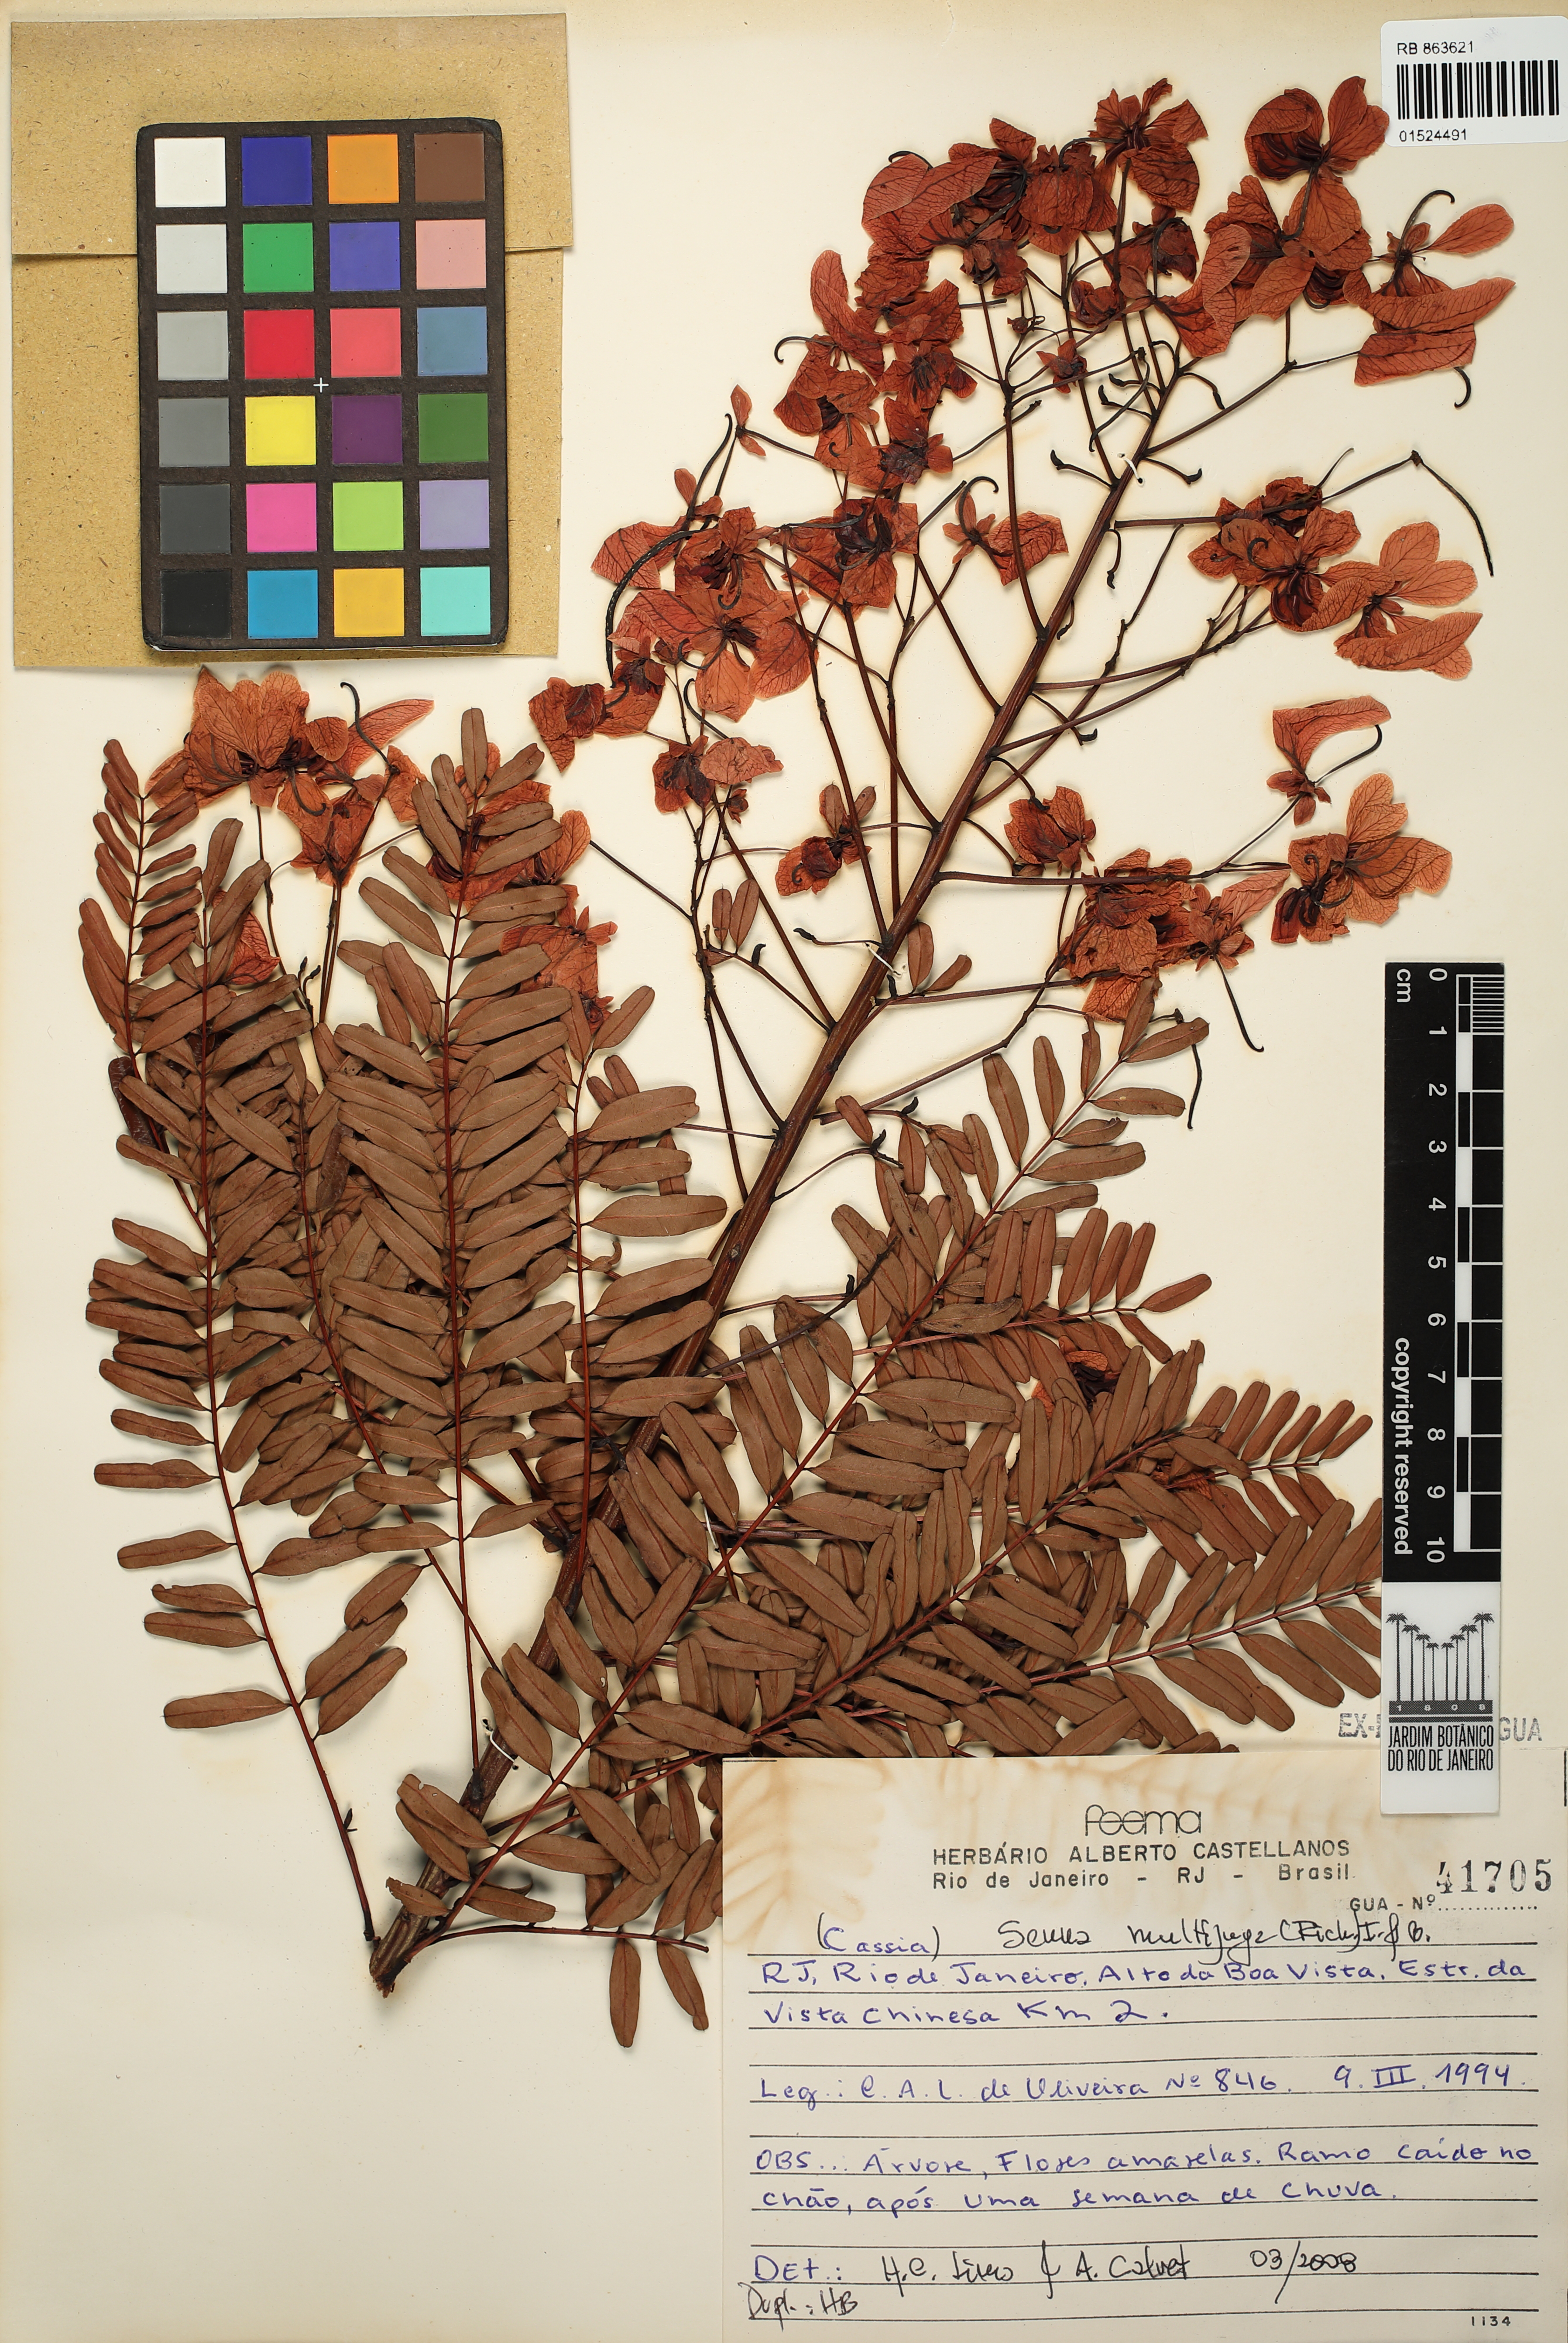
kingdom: Plantae
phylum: Tracheophyta
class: Magnoliopsida
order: Fabales
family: Fabaceae
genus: Senna
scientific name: Senna multijuga
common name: False sicklepod
